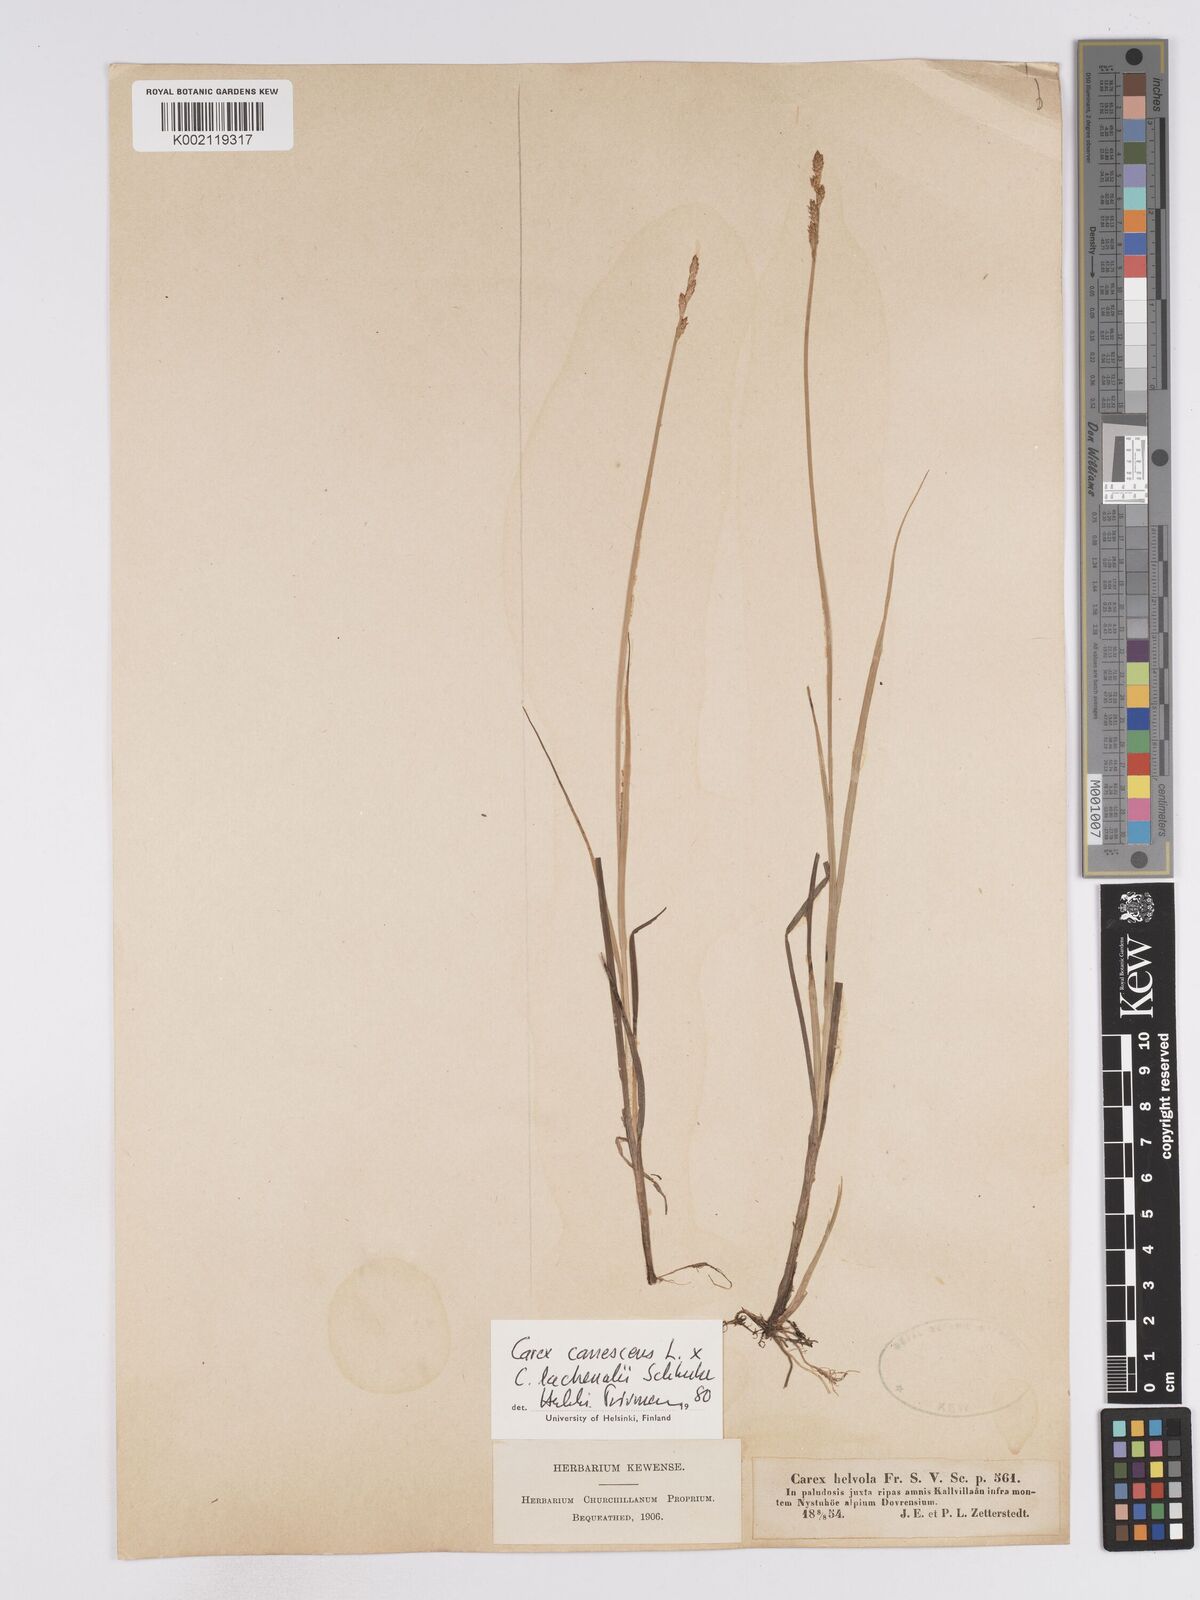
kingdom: Plantae
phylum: Tracheophyta
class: Liliopsida
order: Poales
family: Cyperaceae
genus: Carex
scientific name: Carex
